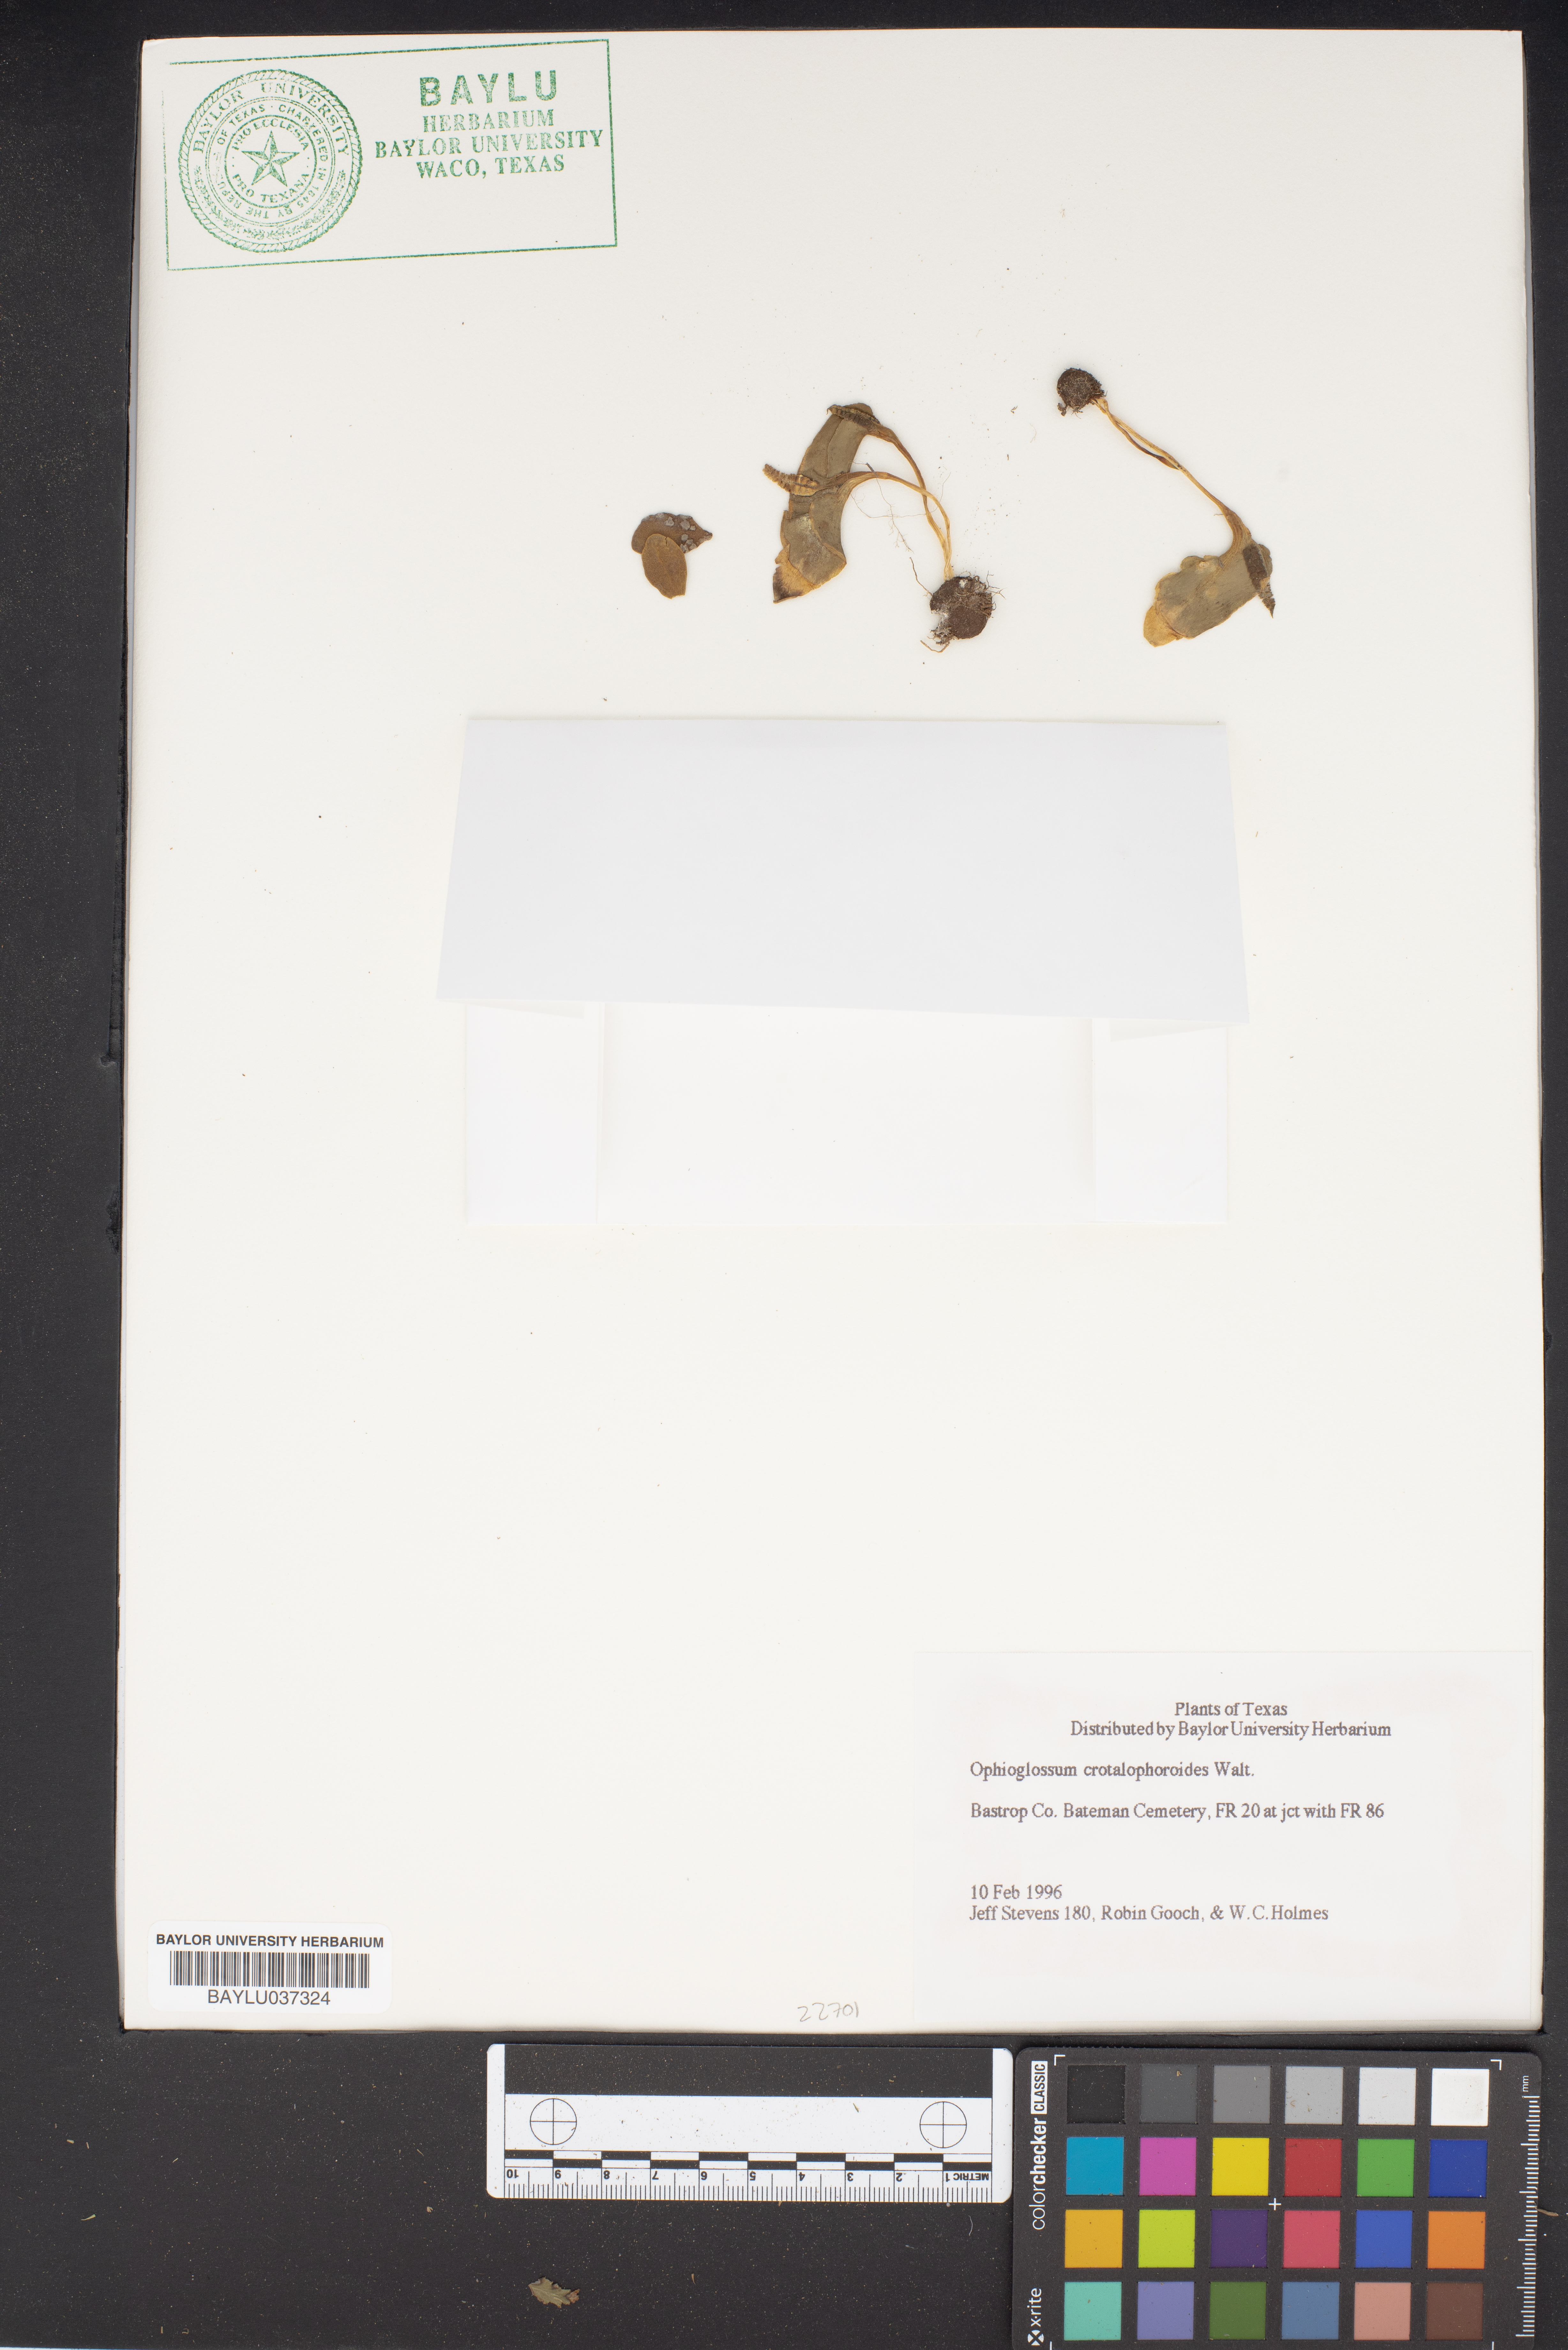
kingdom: Plantae
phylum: Tracheophyta
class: Polypodiopsida
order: Ophioglossales
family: Ophioglossaceae
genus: Ophioglossum
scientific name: Ophioglossum crotalophoroides
